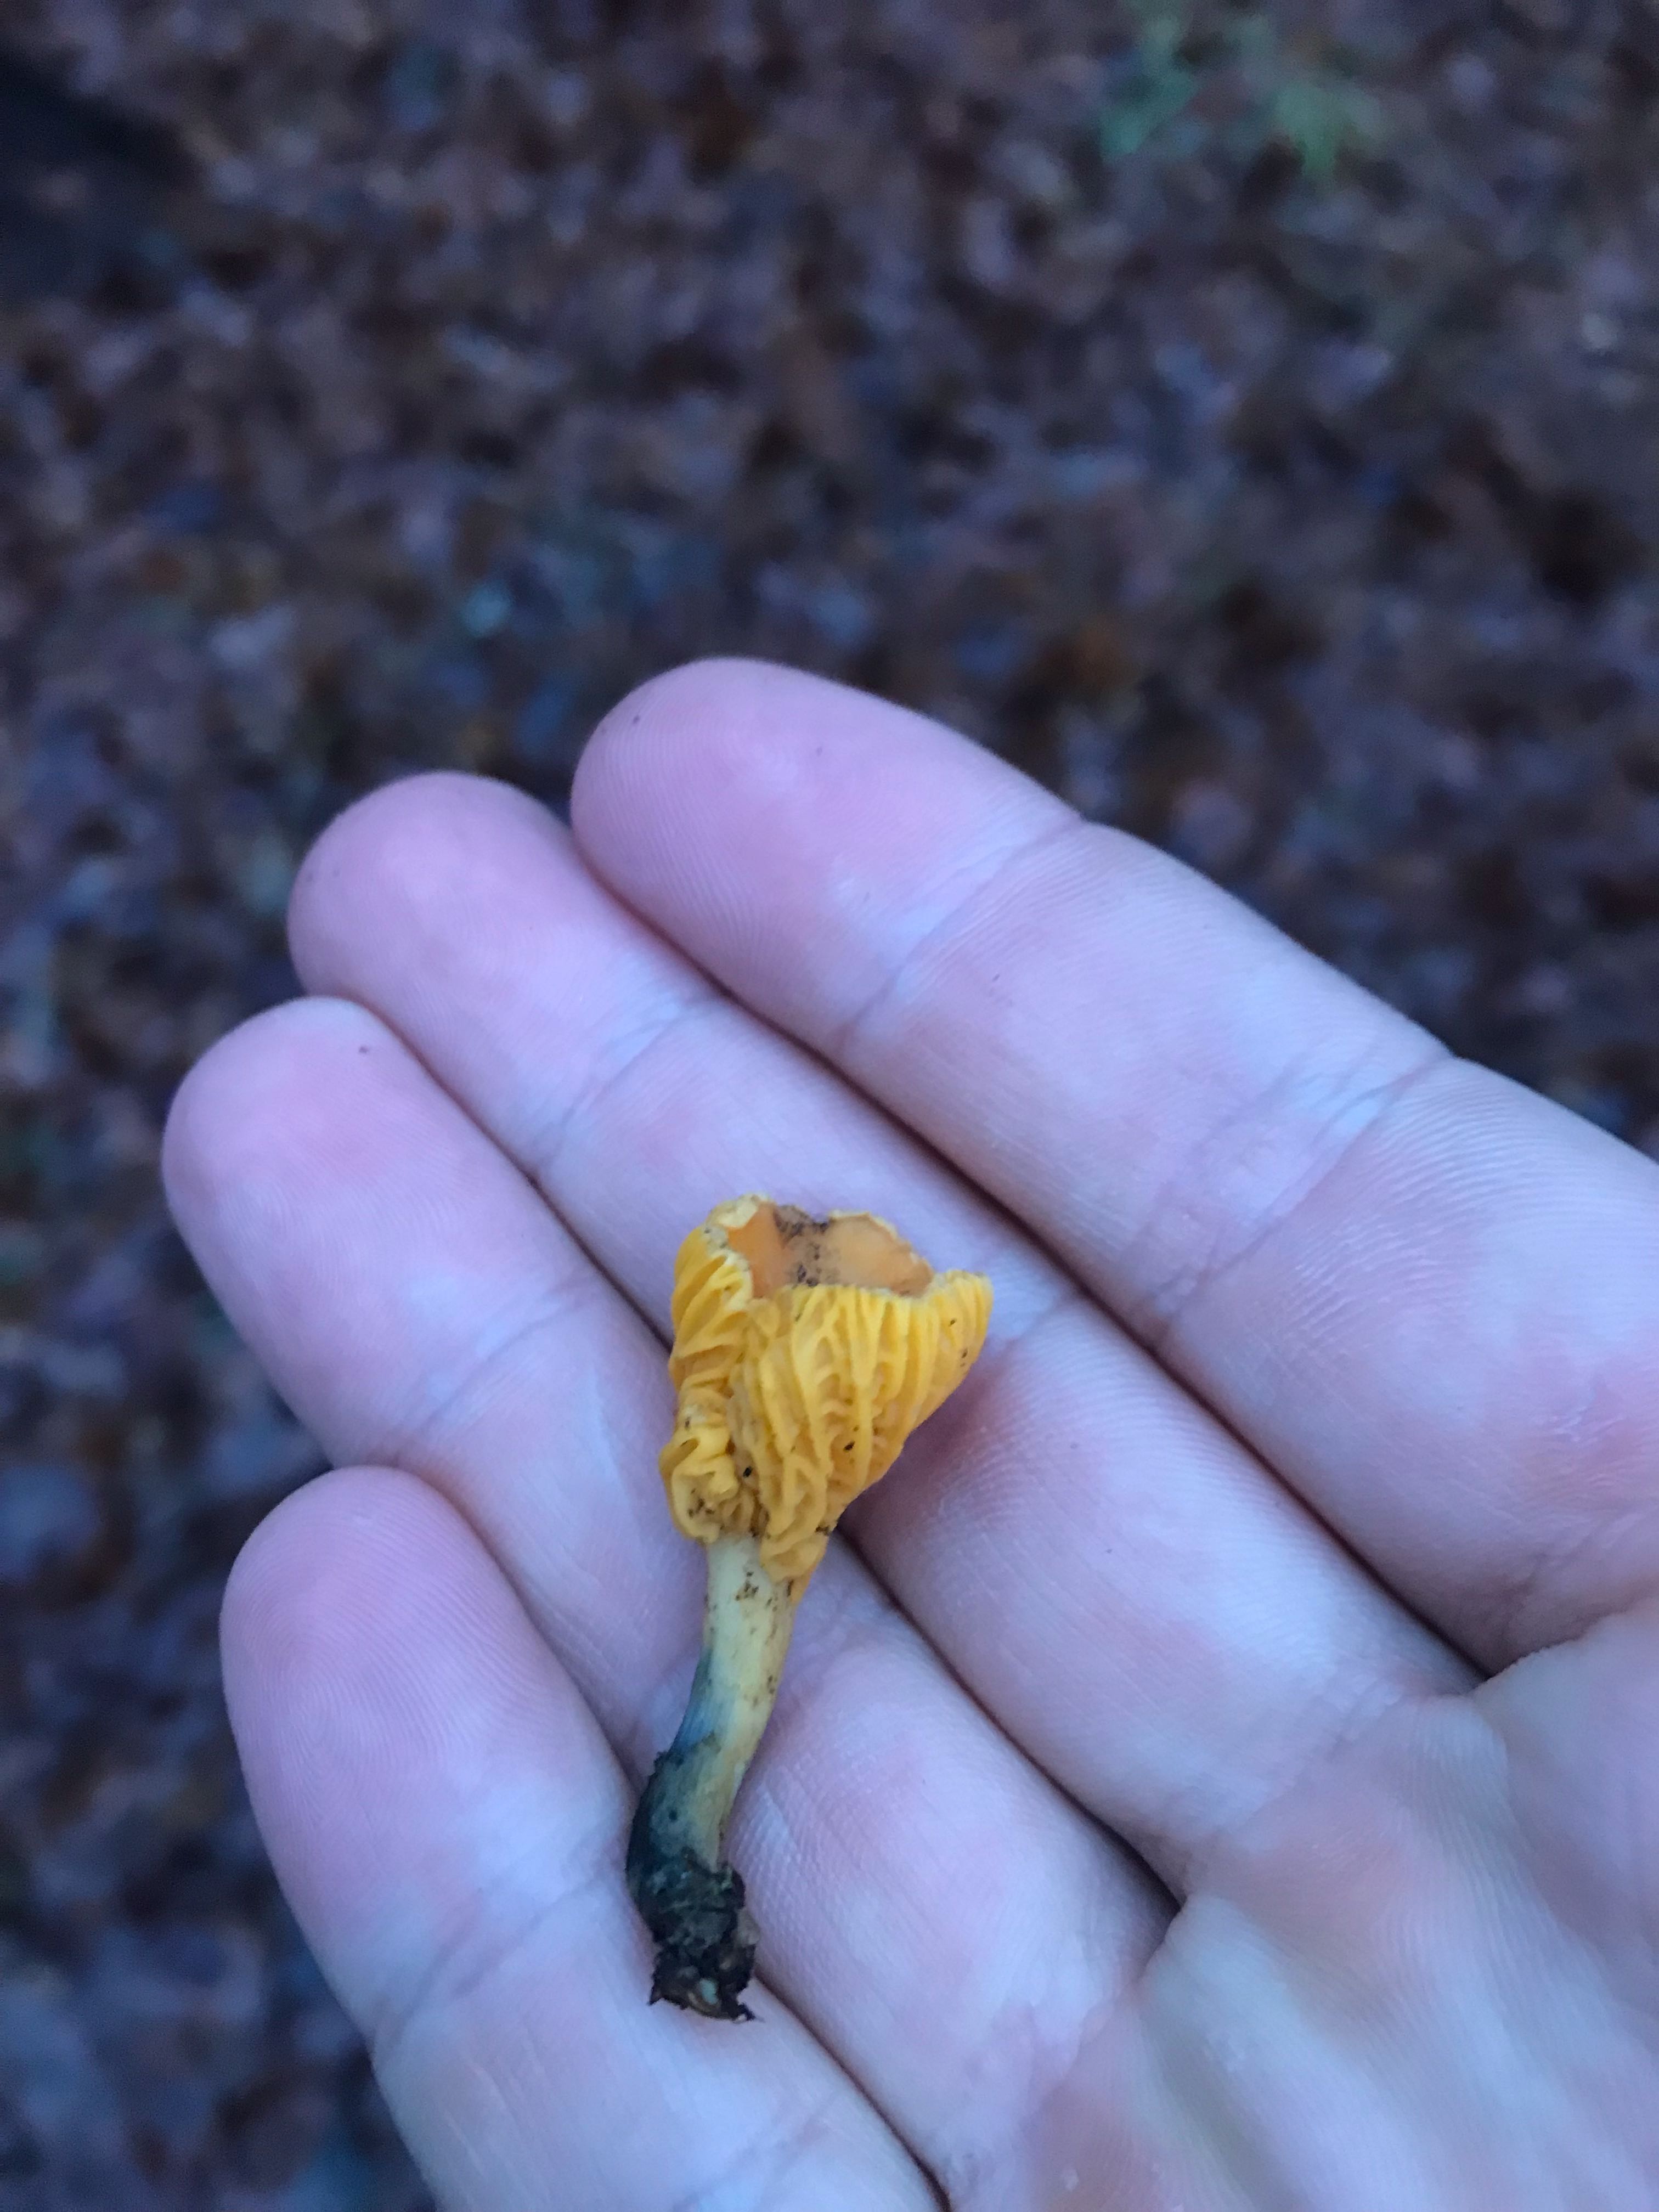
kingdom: Fungi
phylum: Basidiomycota
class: Agaricomycetes
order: Cantharellales
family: Hydnaceae
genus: Cantharellus
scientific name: Cantharellus cibarius
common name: almindelig kantarel
